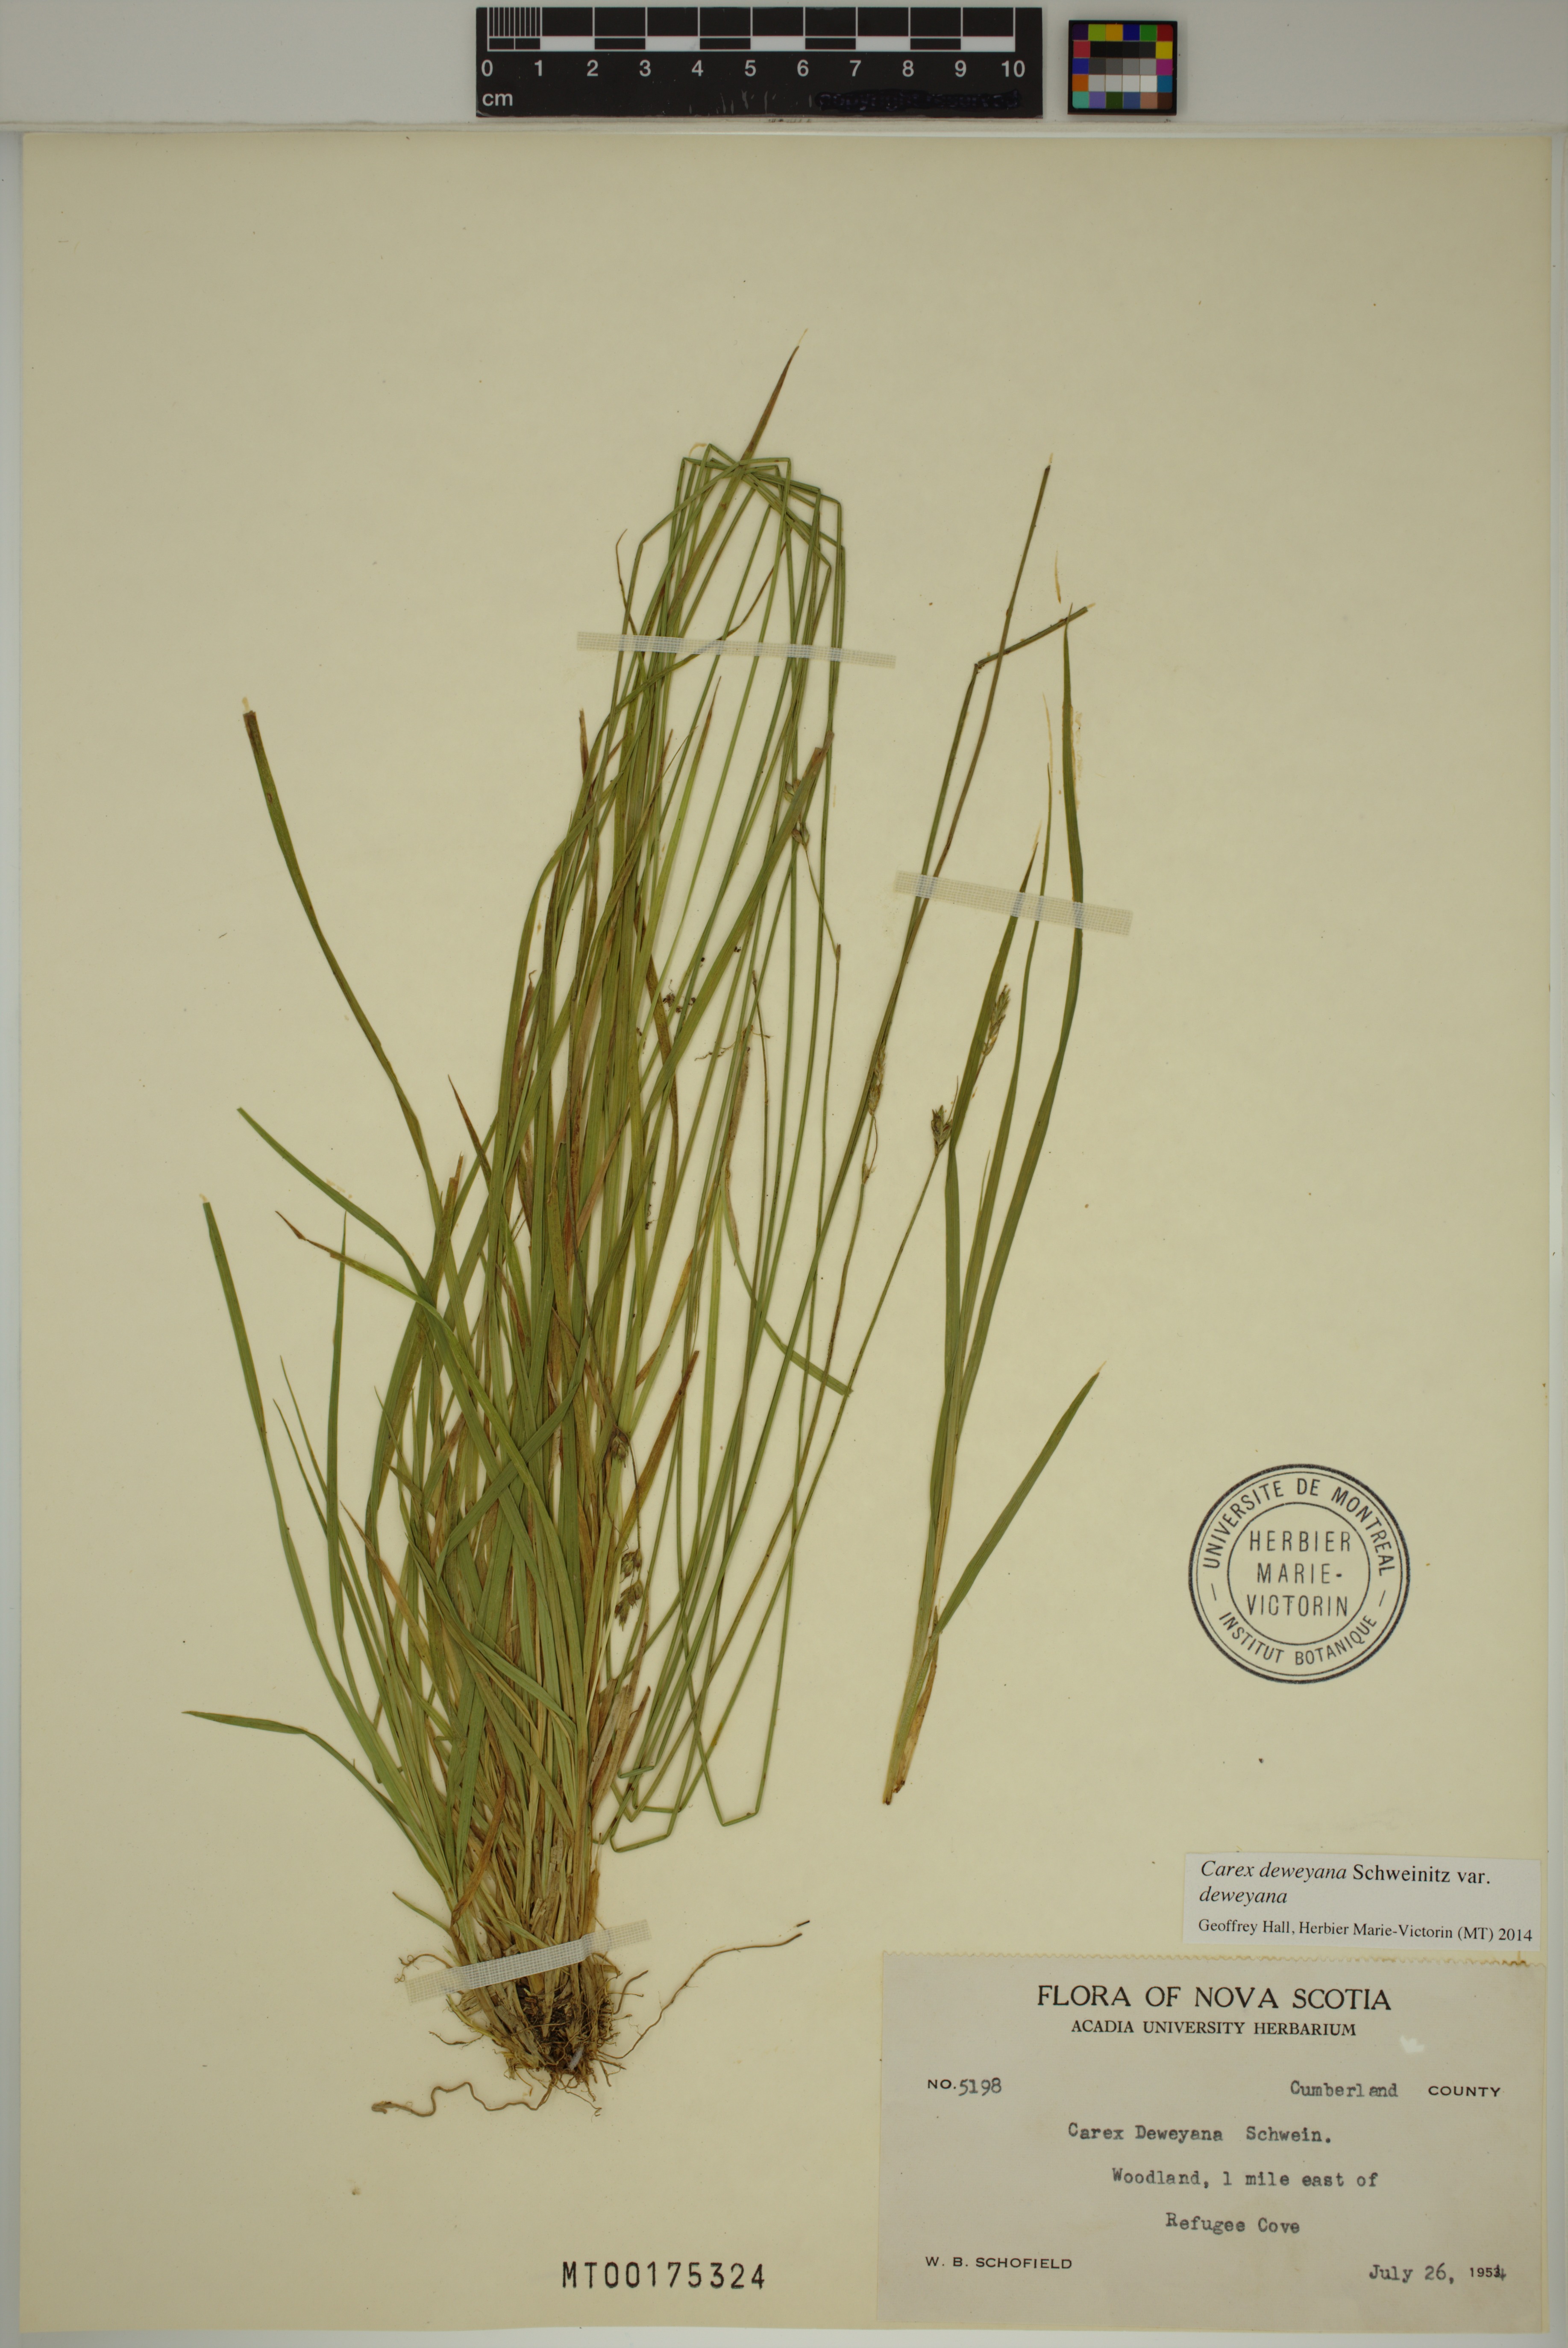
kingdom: Plantae
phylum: Tracheophyta
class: Liliopsida
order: Poales
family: Cyperaceae
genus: Carex
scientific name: Carex deweyana
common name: Dewey's sedge
